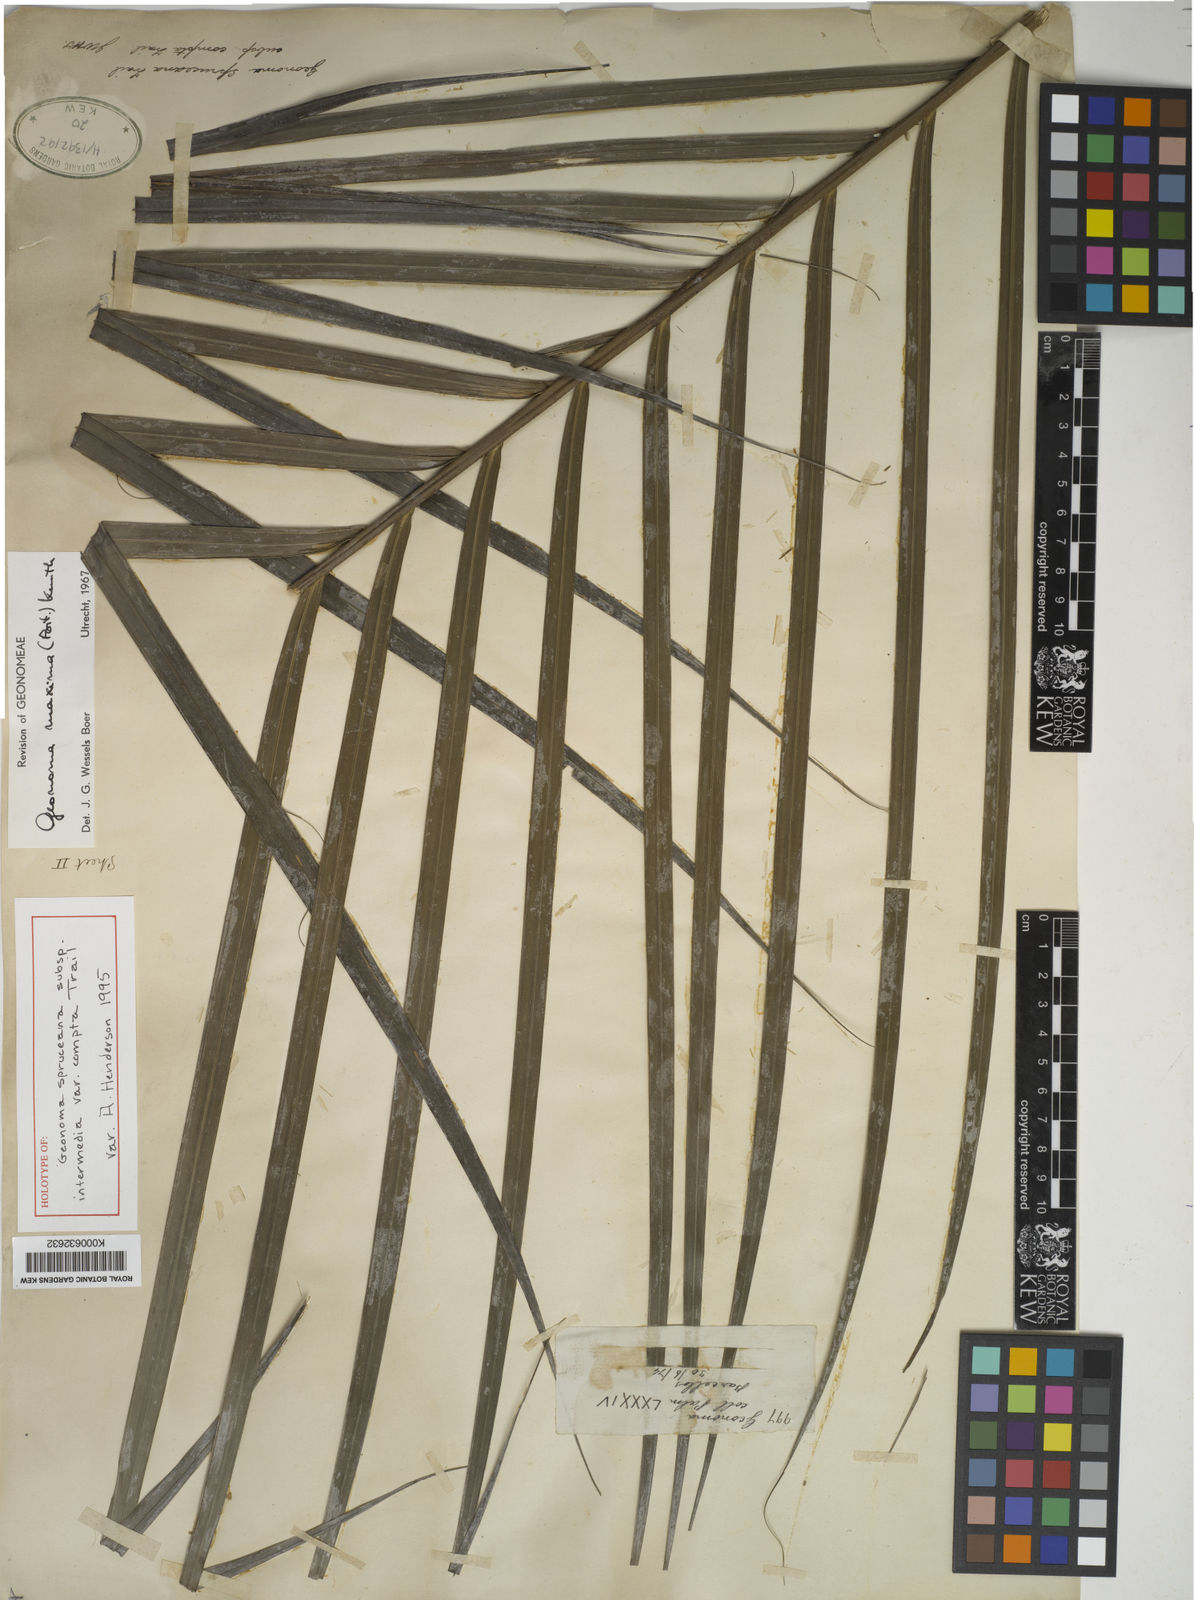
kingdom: Plantae
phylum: Tracheophyta
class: Liliopsida
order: Arecales
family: Arecaceae
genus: Geonoma
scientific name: Geonoma maxima
